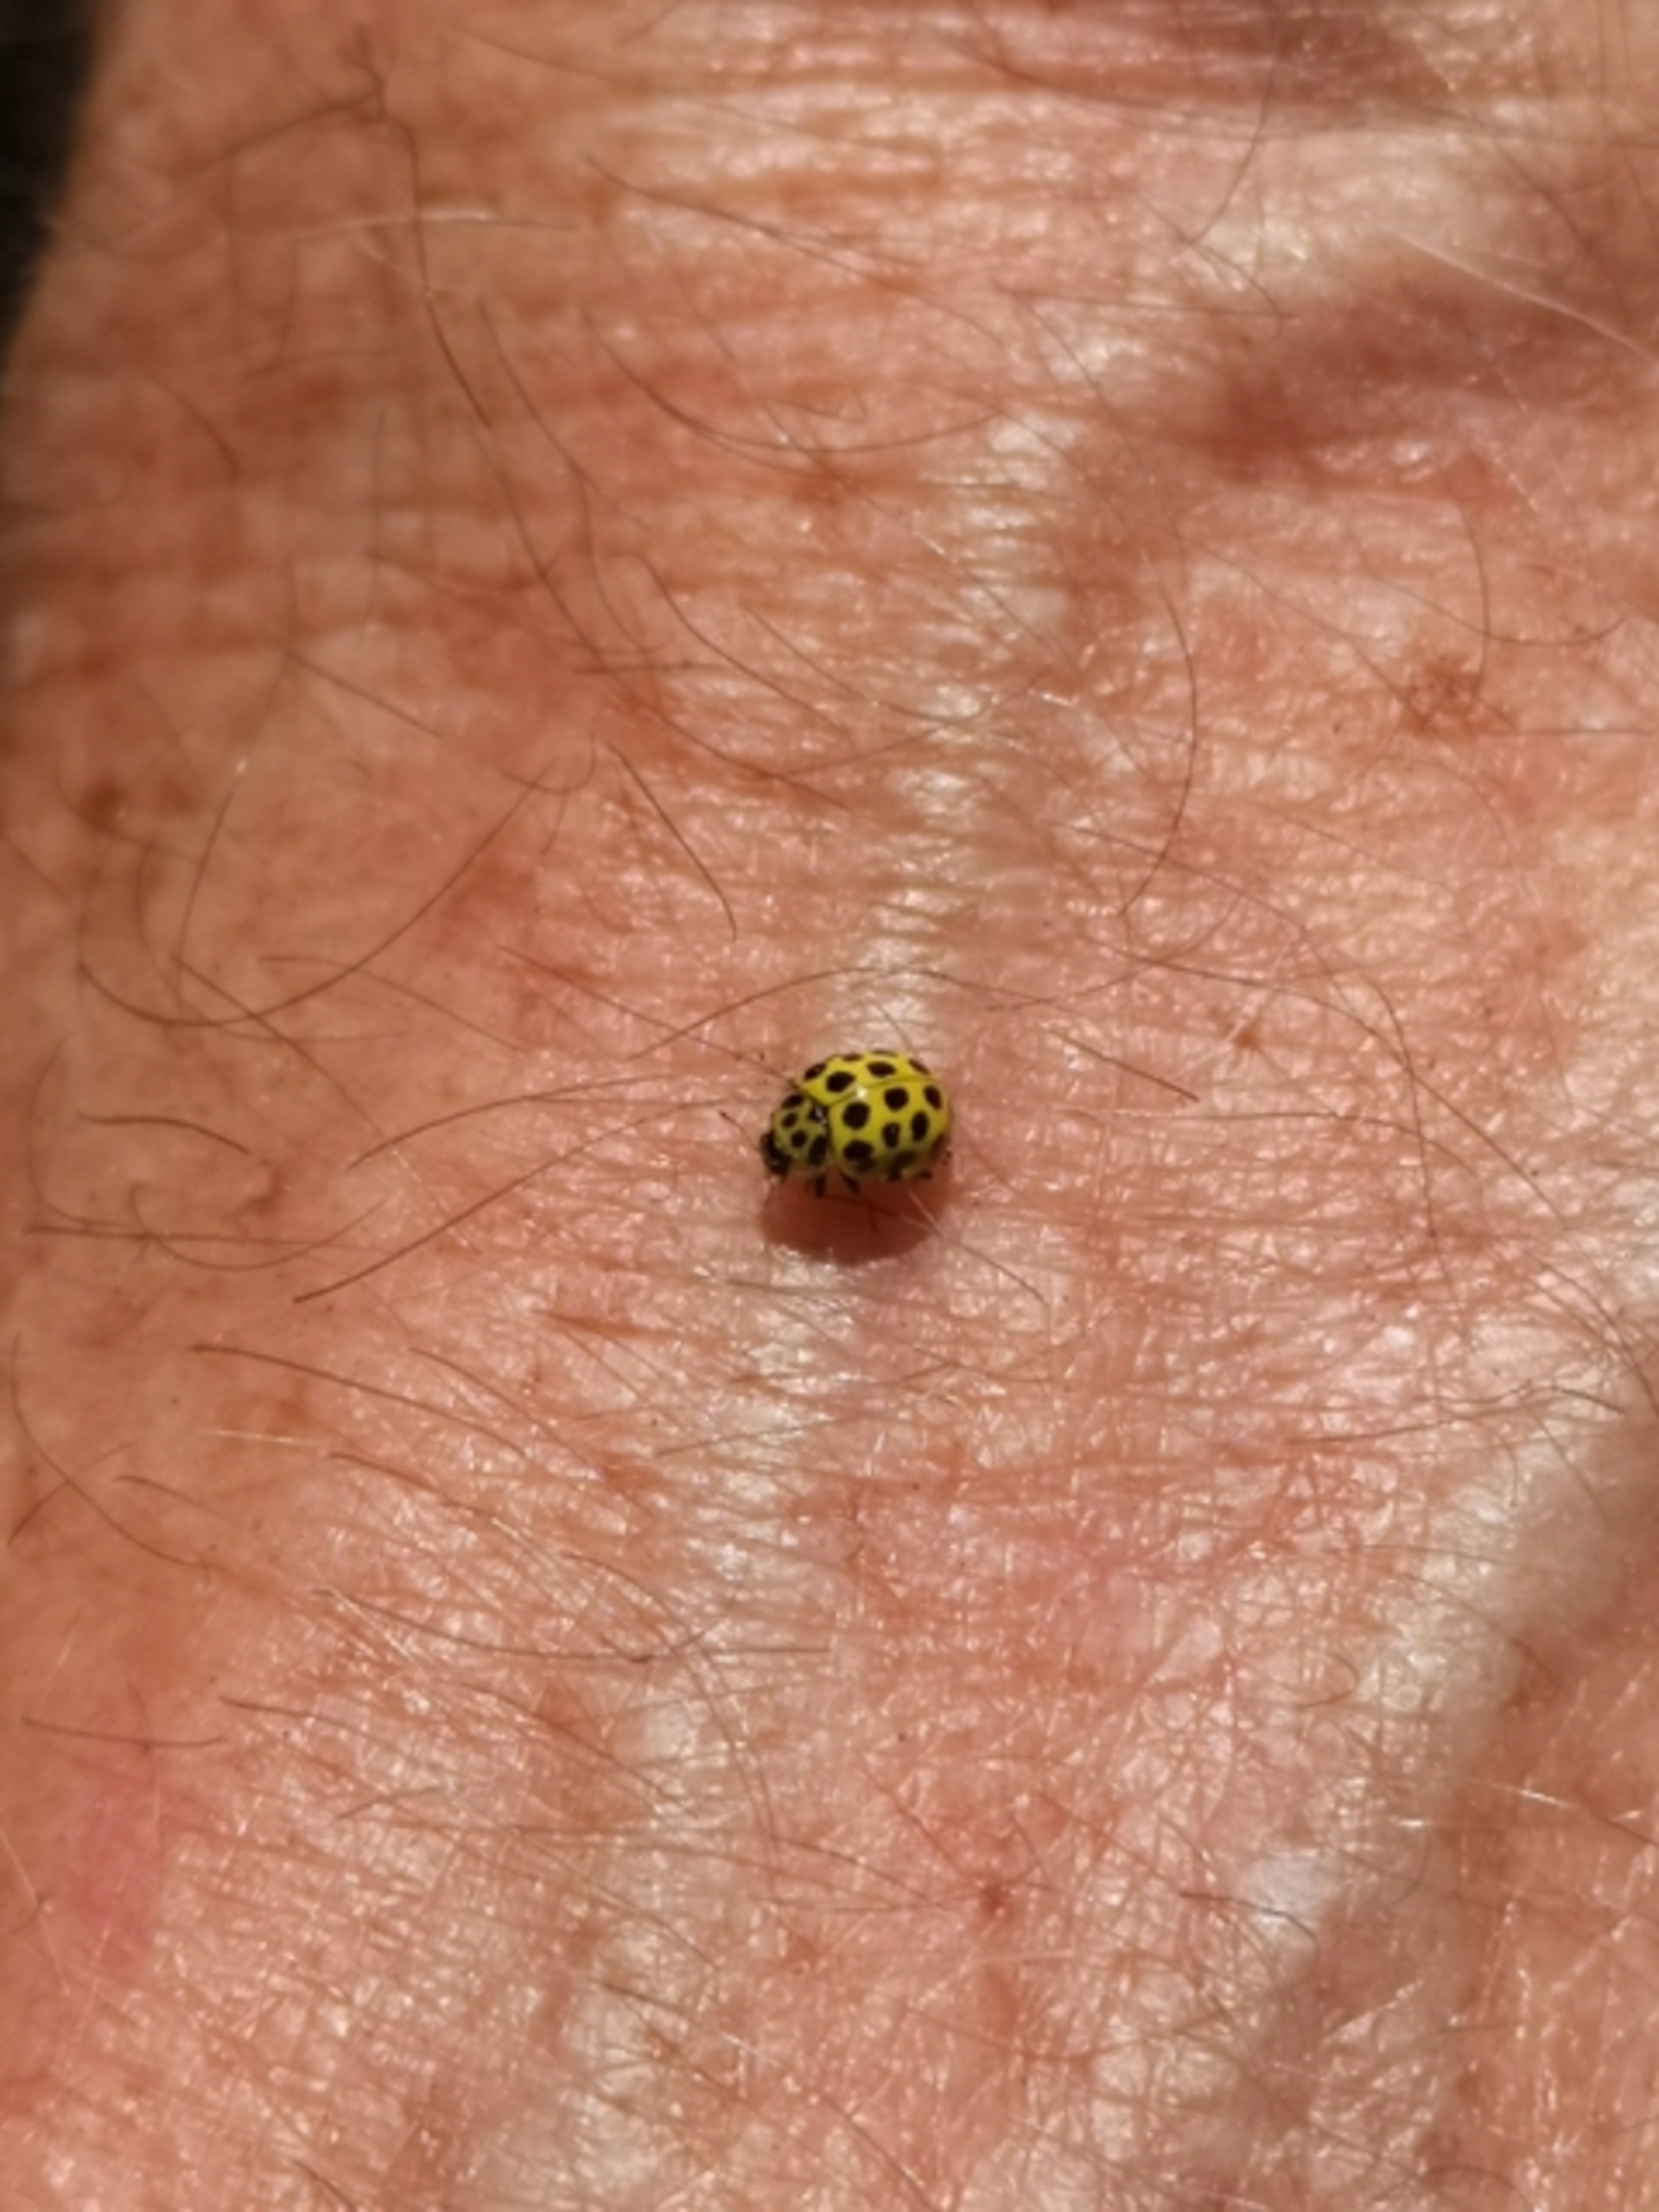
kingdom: Animalia
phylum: Arthropoda
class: Insecta
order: Coleoptera
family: Coccinellidae
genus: Psyllobora
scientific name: Psyllobora vigintiduopunctata
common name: Toogtyveplettet mariehøne
